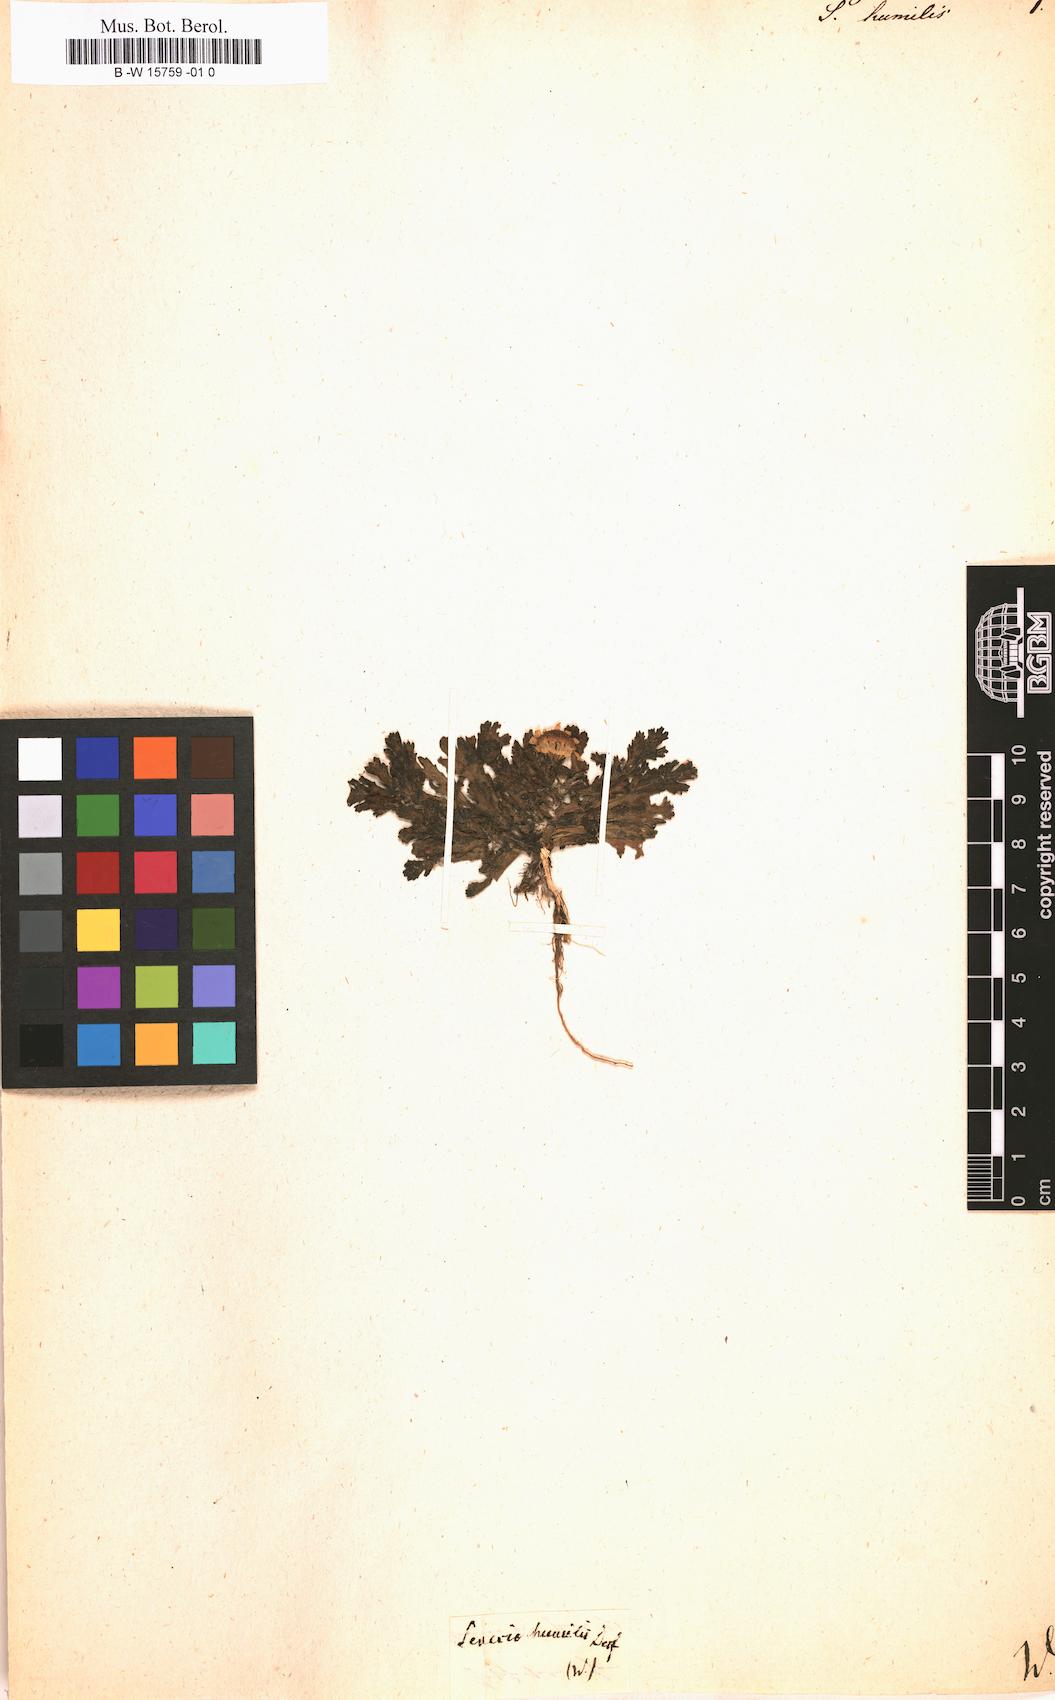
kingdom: Plantae
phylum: Tracheophyta
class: Magnoliopsida
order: Asterales
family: Asteraceae
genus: Senecio
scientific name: Senecio leucanthemifolius
